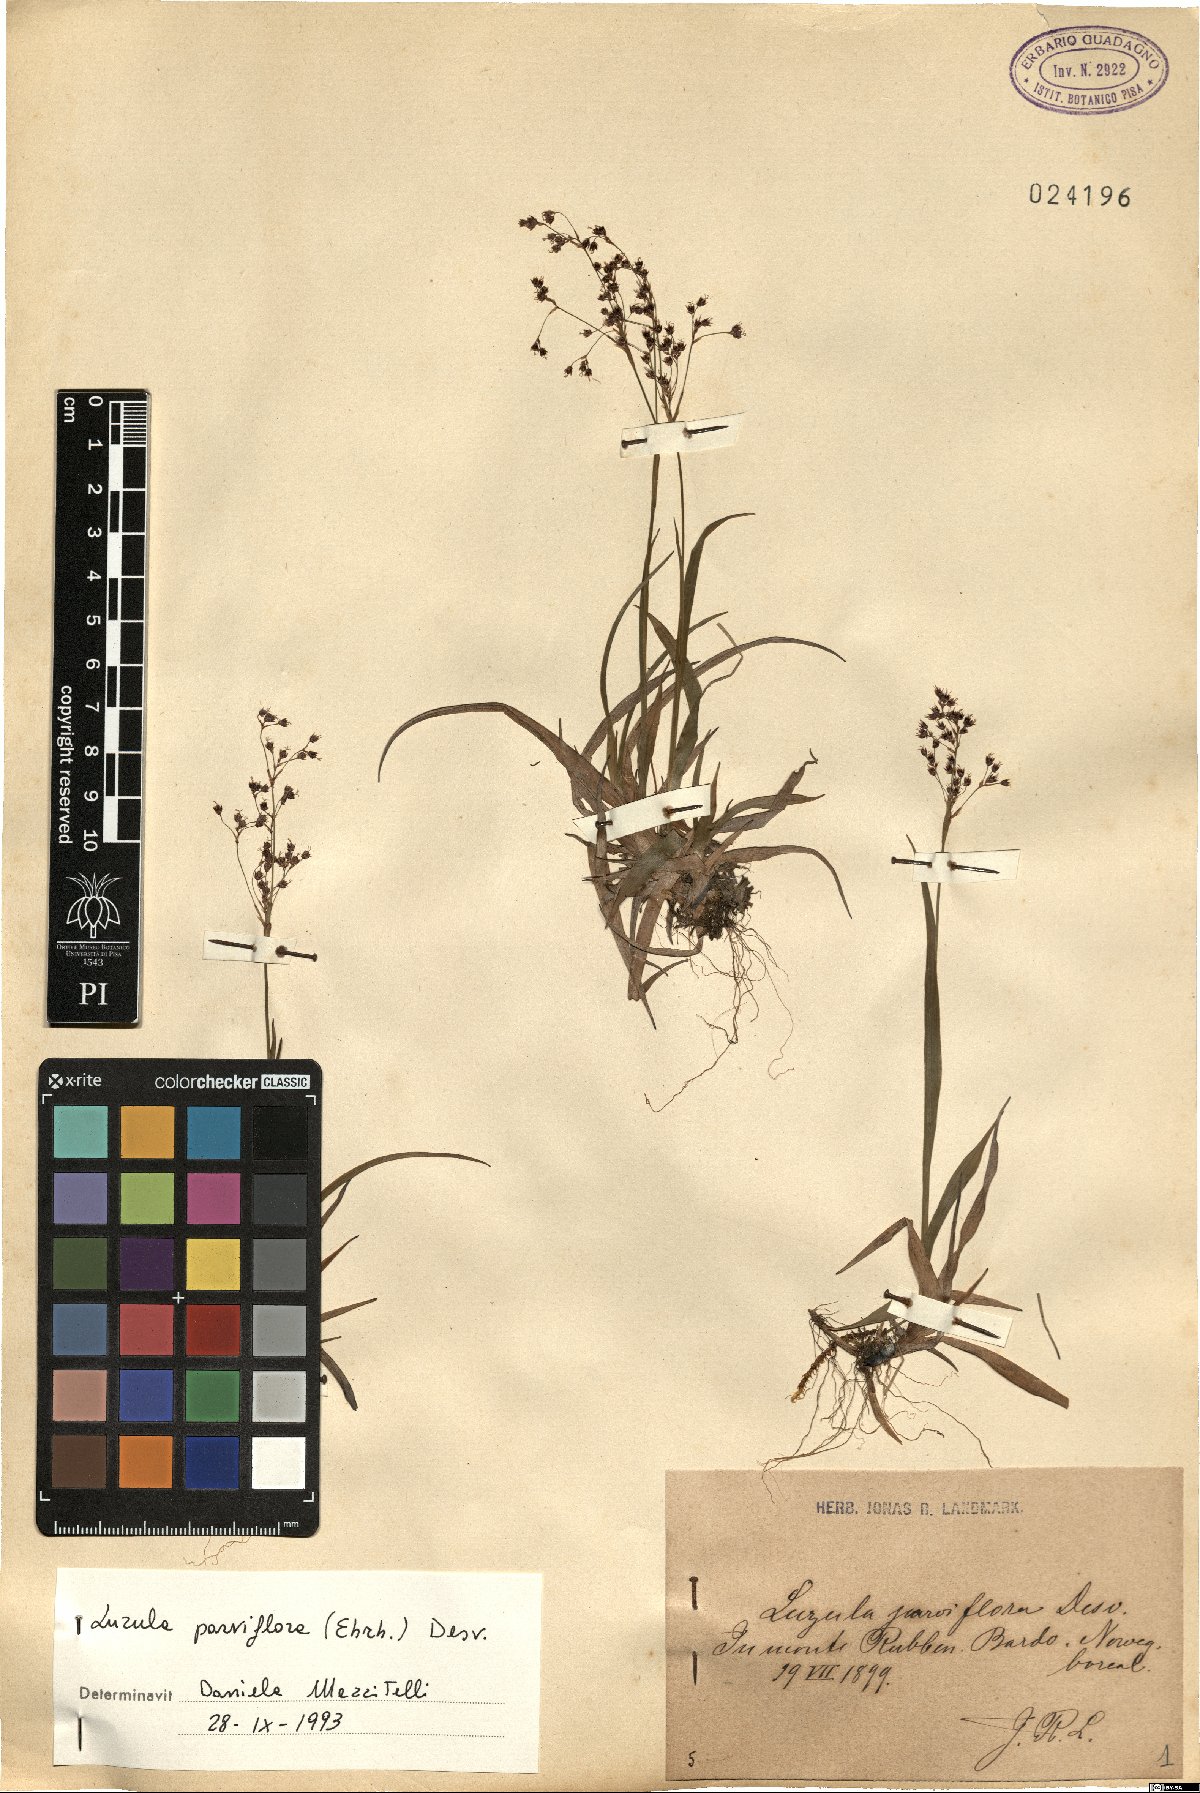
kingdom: Plantae
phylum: Tracheophyta
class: Liliopsida
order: Poales
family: Juncaceae
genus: Luzula
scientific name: Luzula parviflora
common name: Millet woodrush
